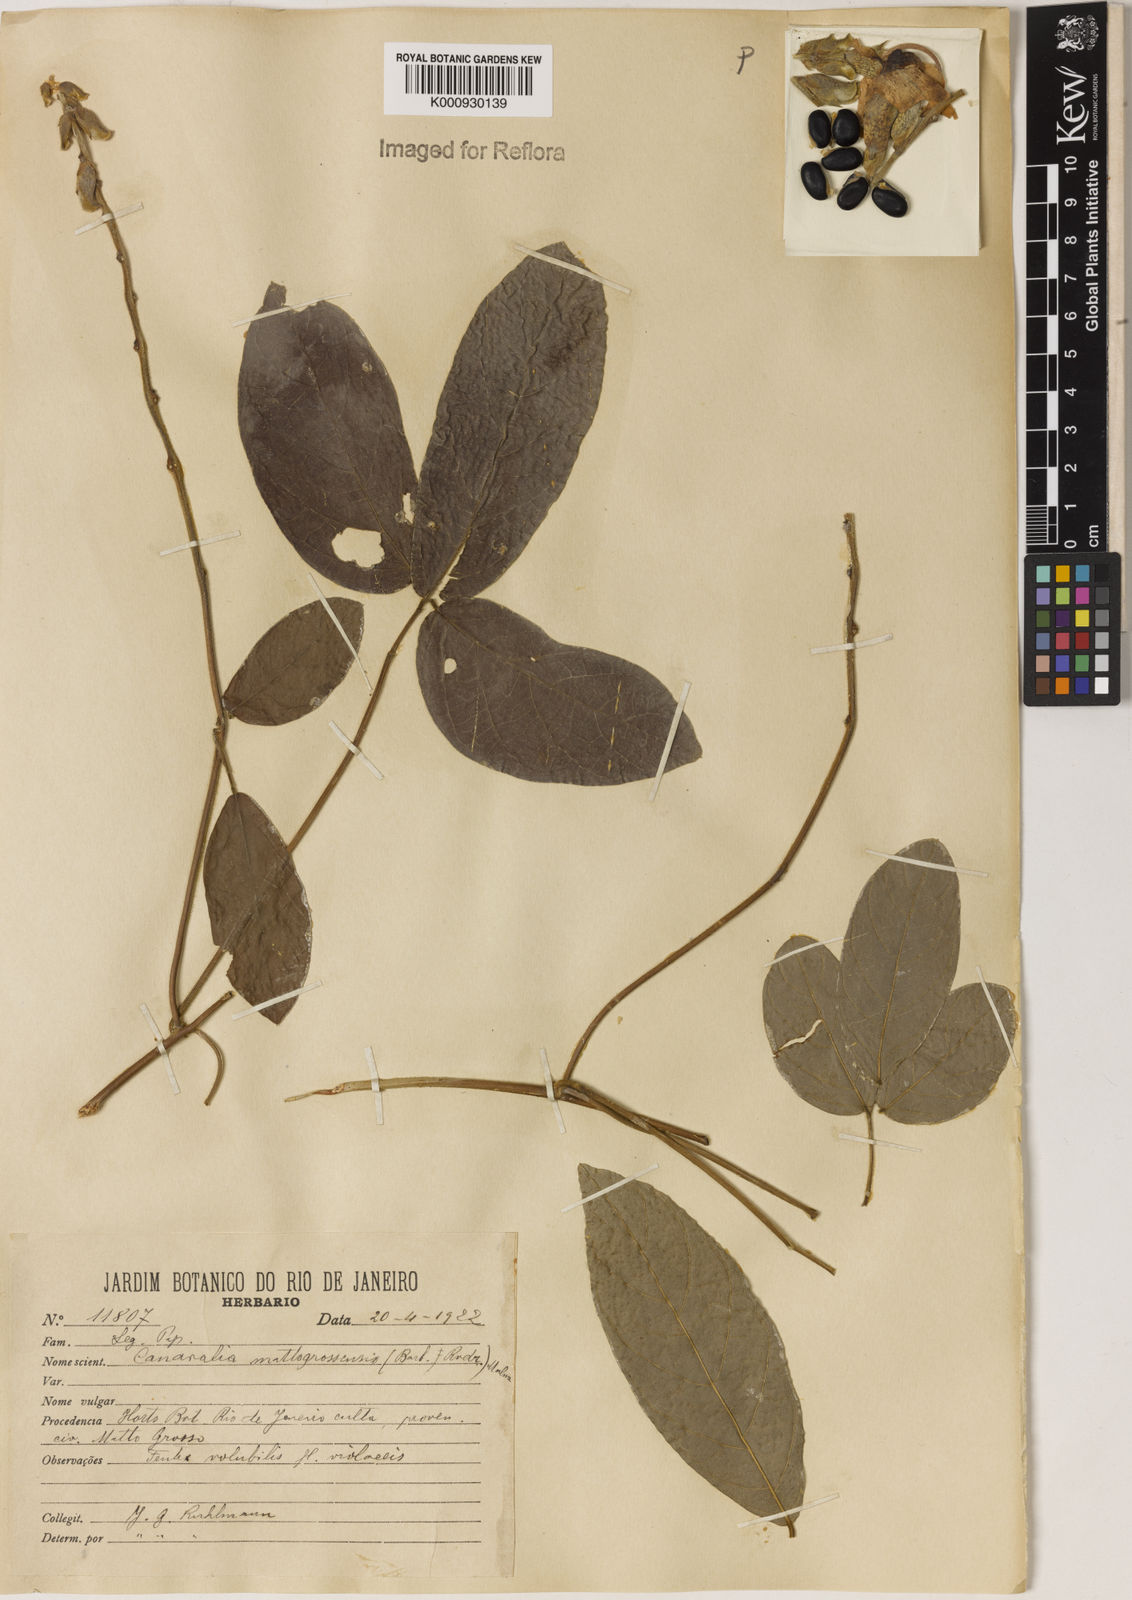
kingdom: Plantae
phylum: Tracheophyta
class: Magnoliopsida
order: Fabales
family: Fabaceae
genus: Canavalia
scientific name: Canavalia mattogrossensis
